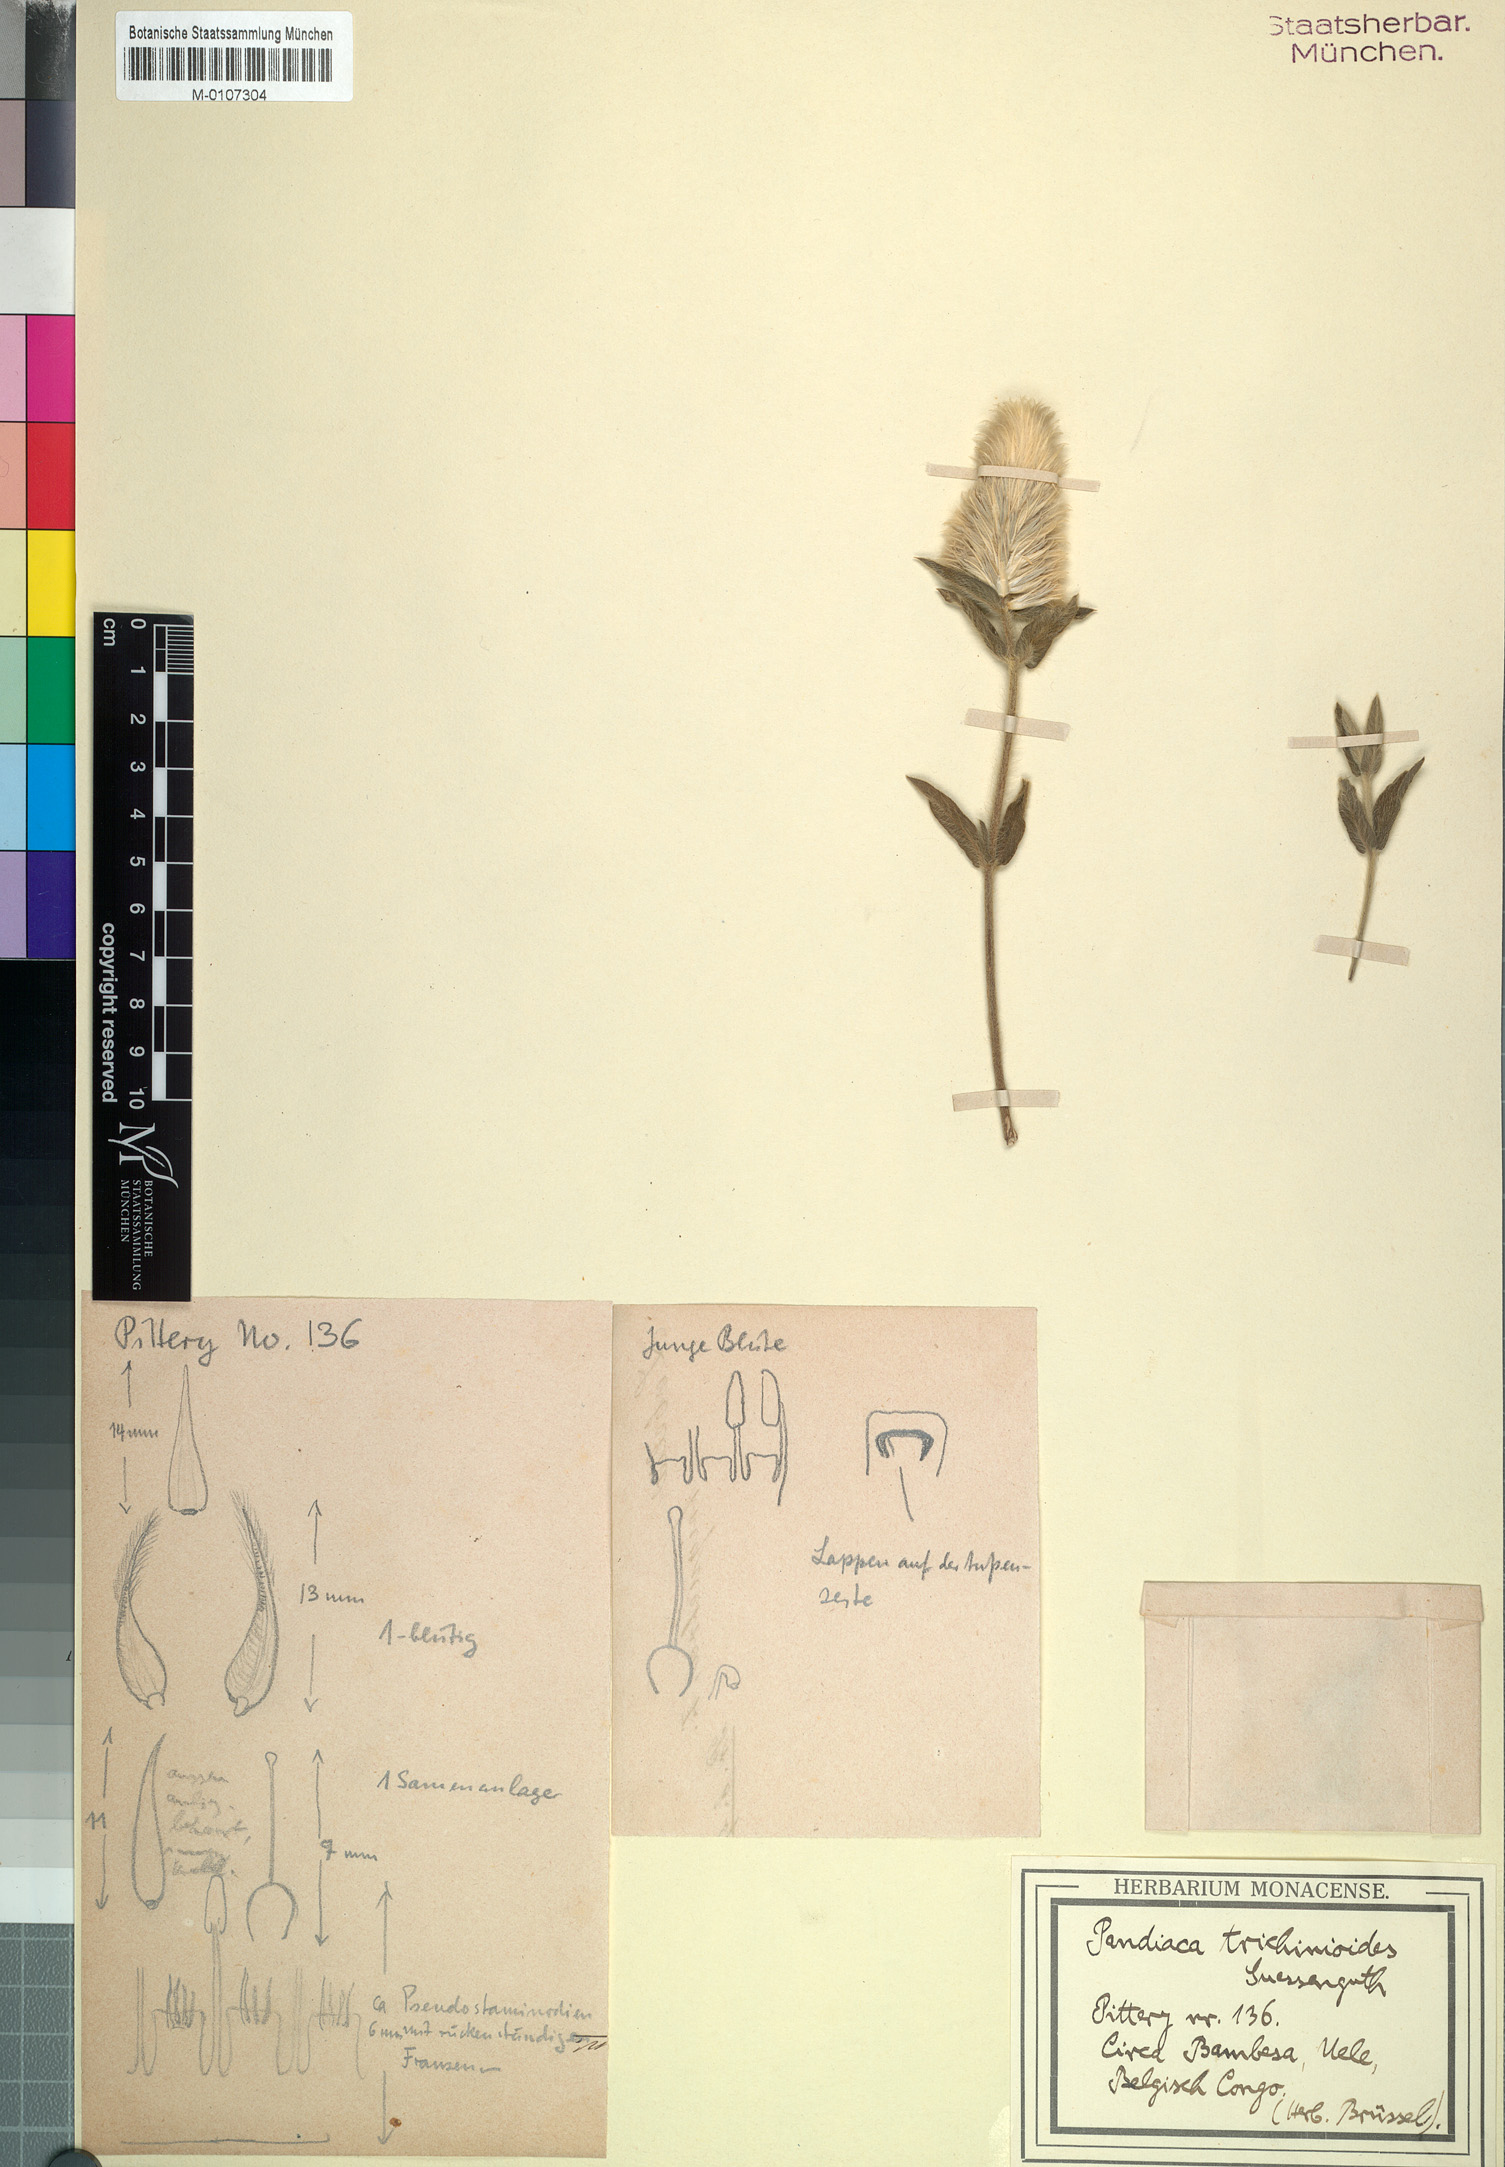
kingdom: Plantae
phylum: Tracheophyta
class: Magnoliopsida
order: Caryophyllales
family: Amaranthaceae
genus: Pandiaka
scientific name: Pandiaka trichinioides
